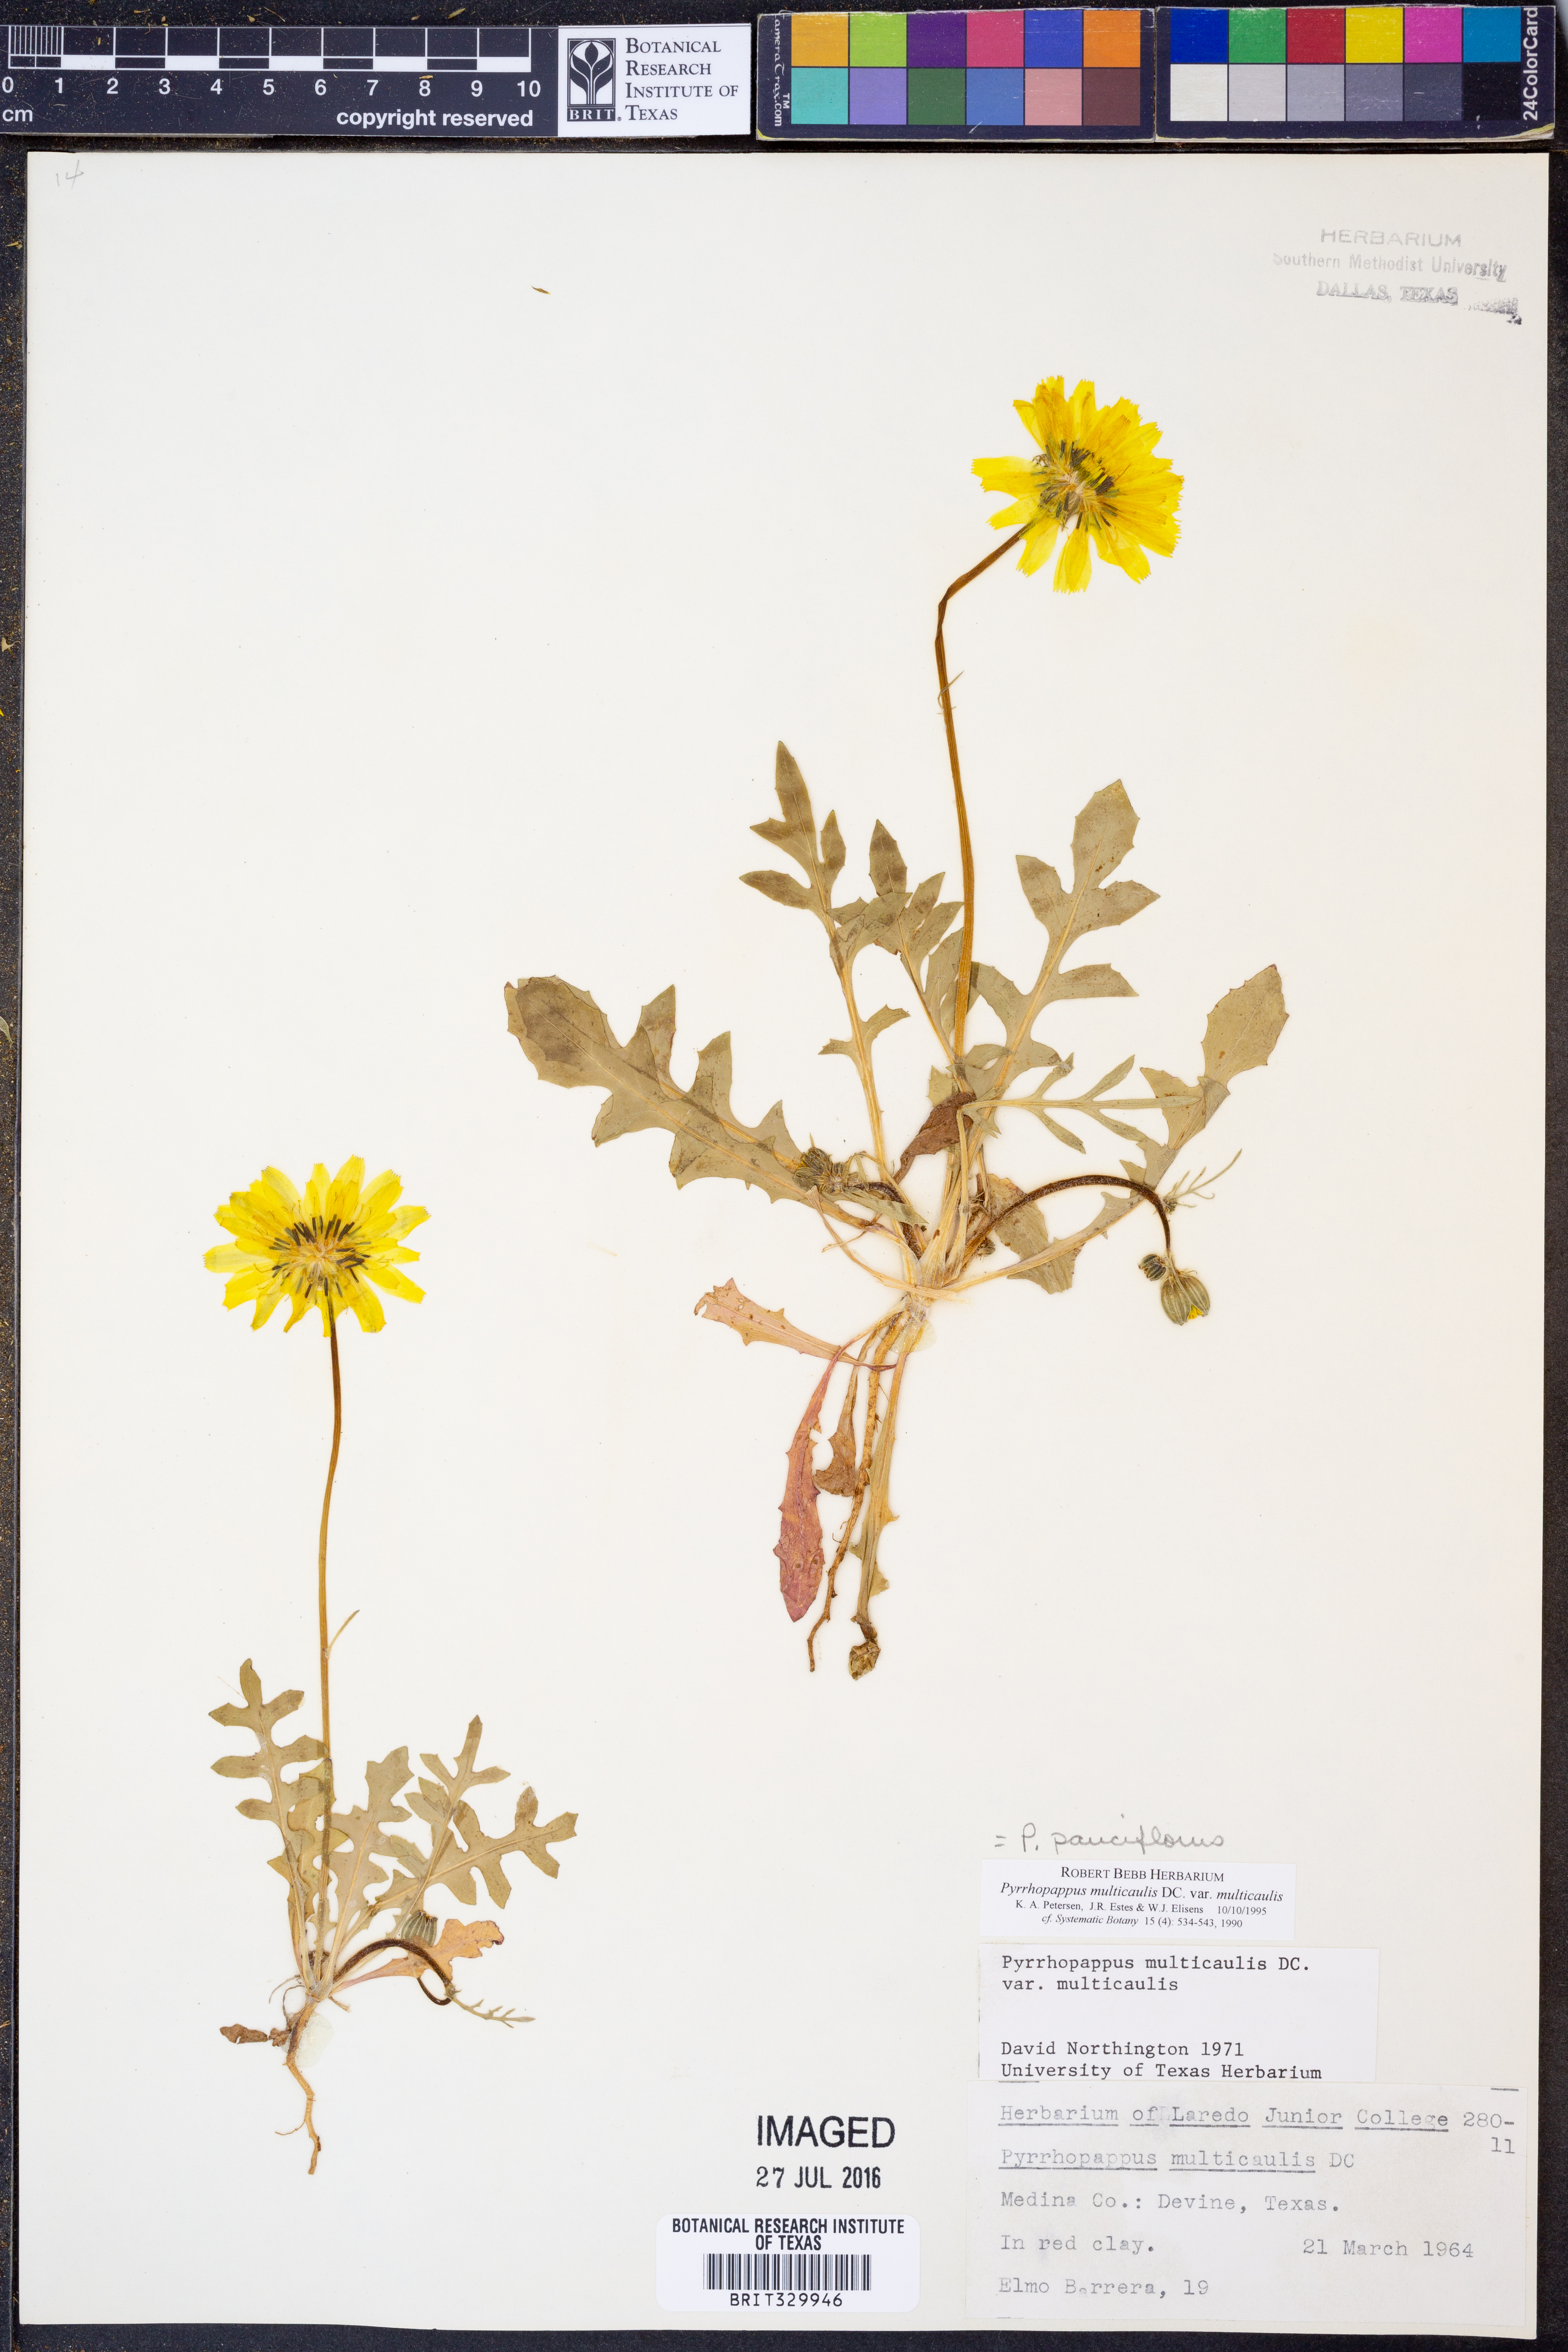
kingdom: Plantae
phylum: Tracheophyta
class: Magnoliopsida
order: Asterales
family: Asteraceae
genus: Pyrrhopappus
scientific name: Pyrrhopappus pauciflorus
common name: Texas false dandelion
